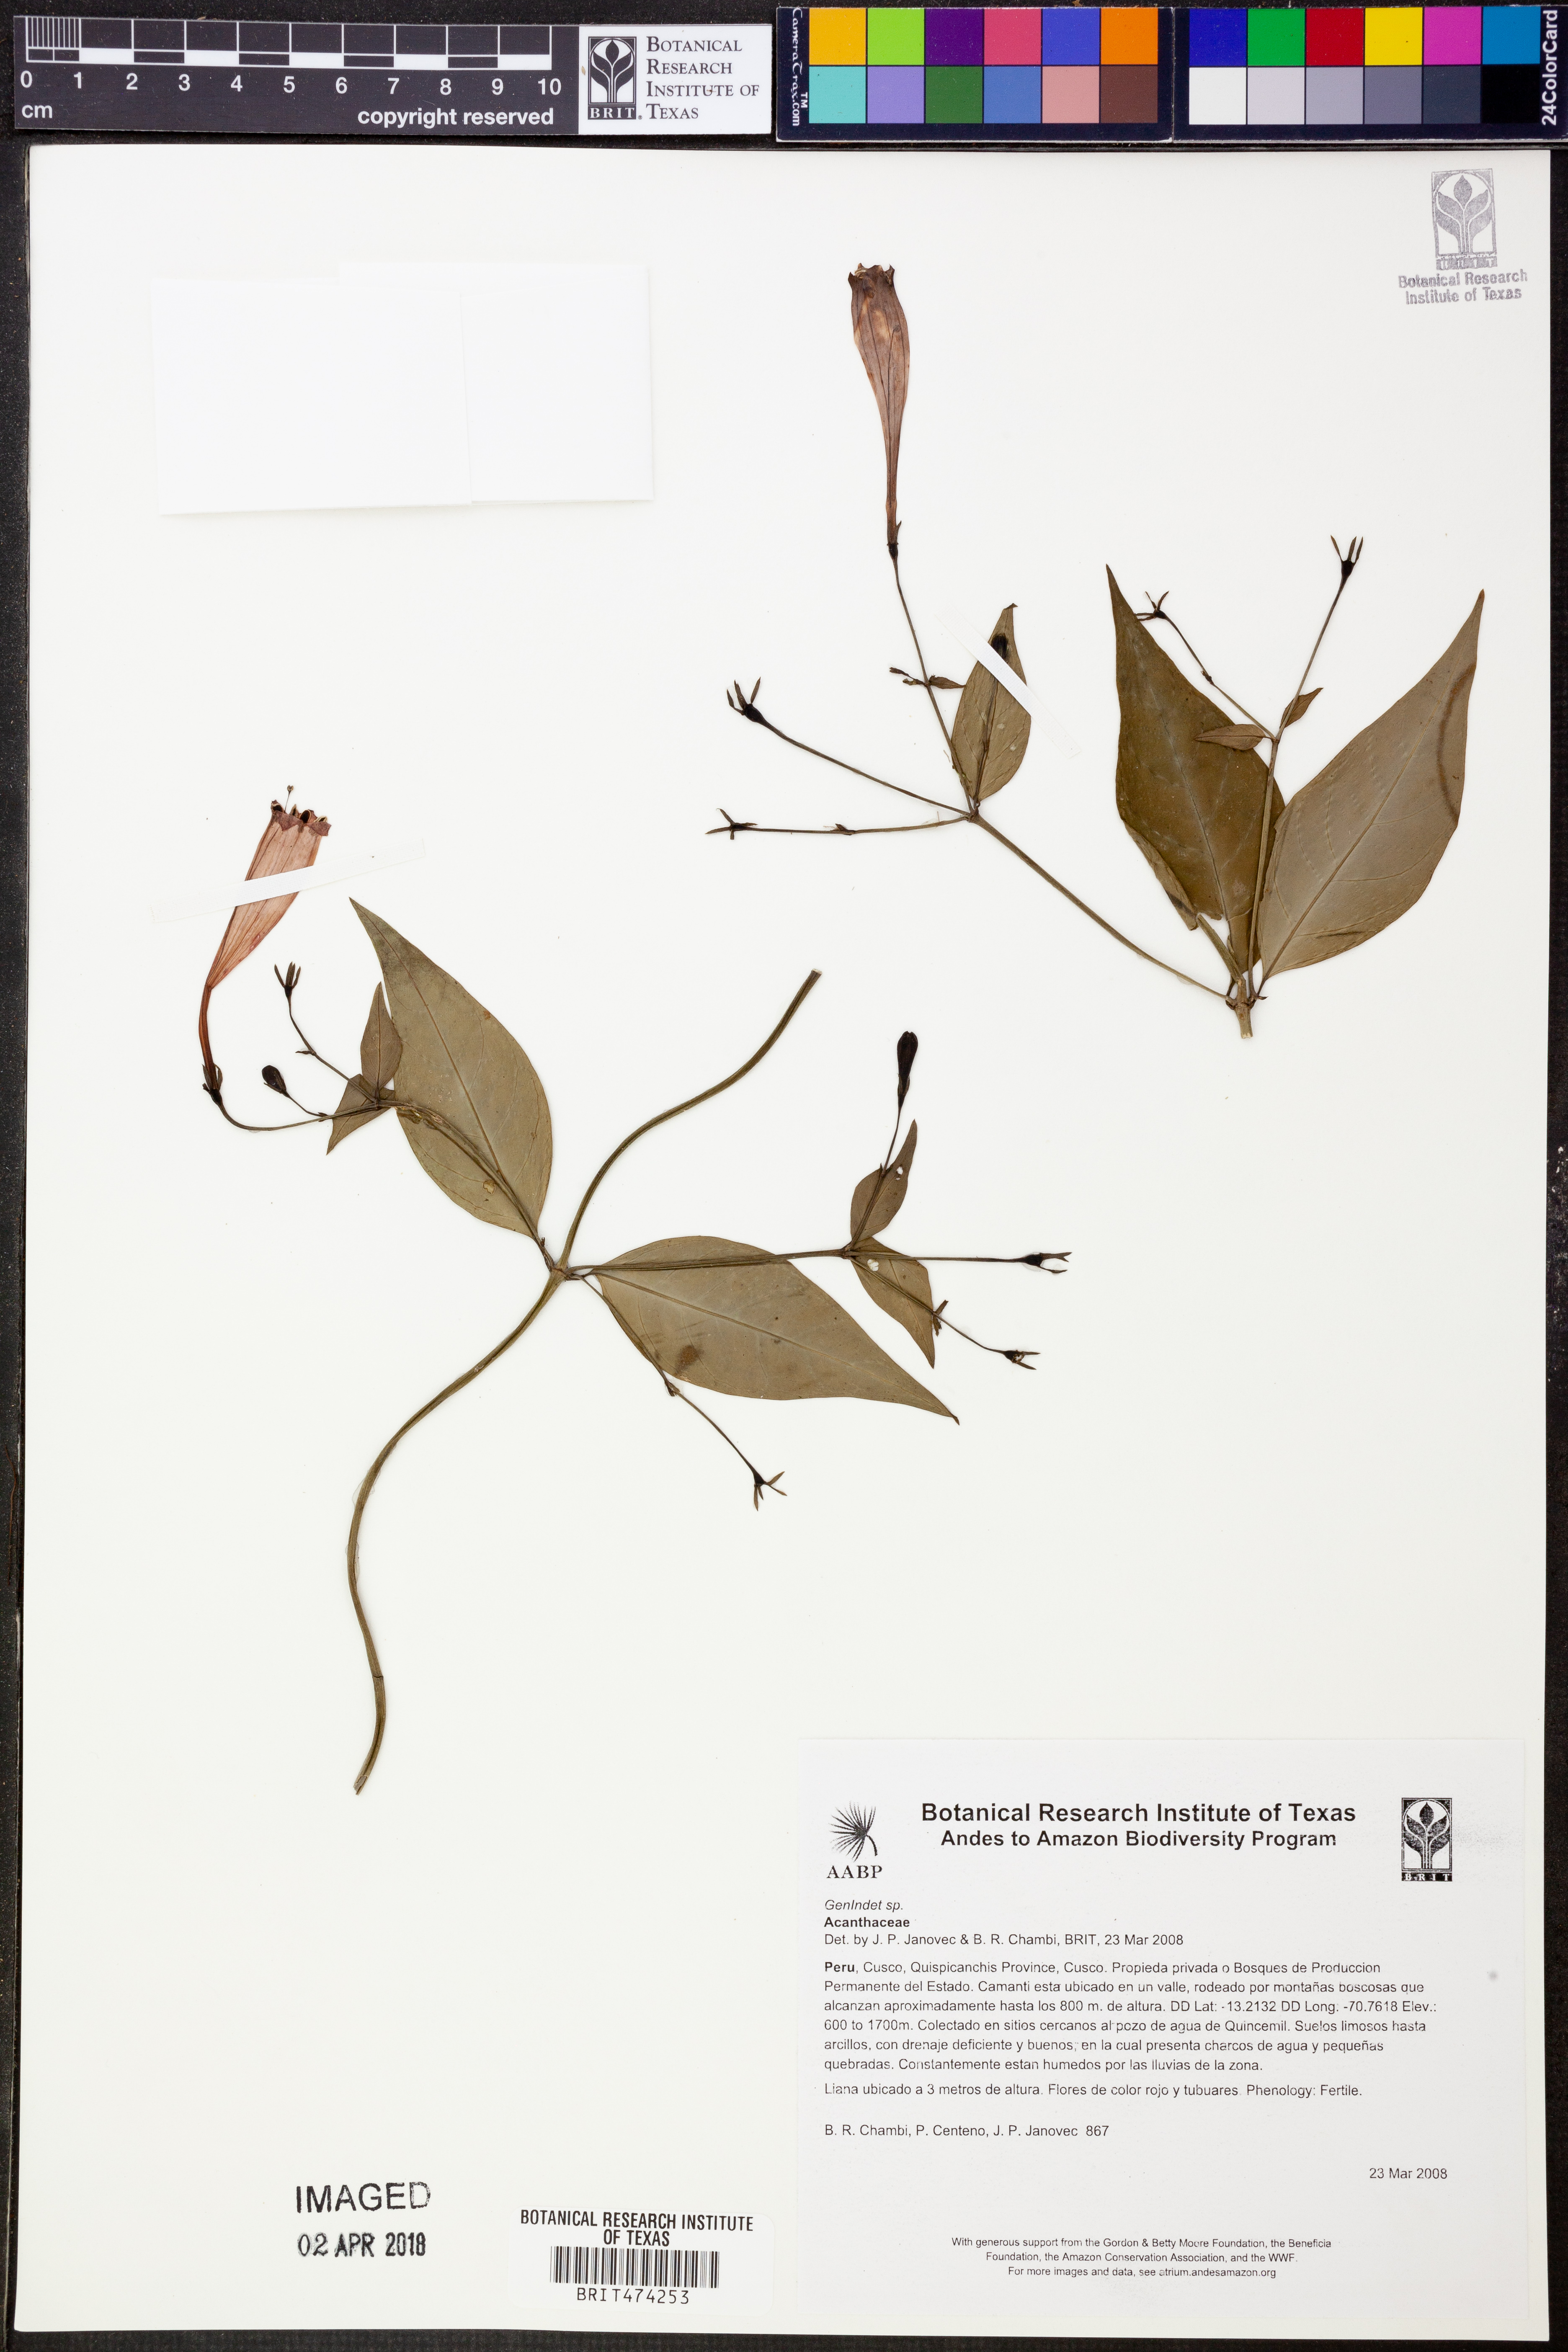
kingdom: Plantae
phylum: Tracheophyta
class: Magnoliopsida
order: Gentianales
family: Rubiaceae
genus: Manettia
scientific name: Manettia cordifolia
